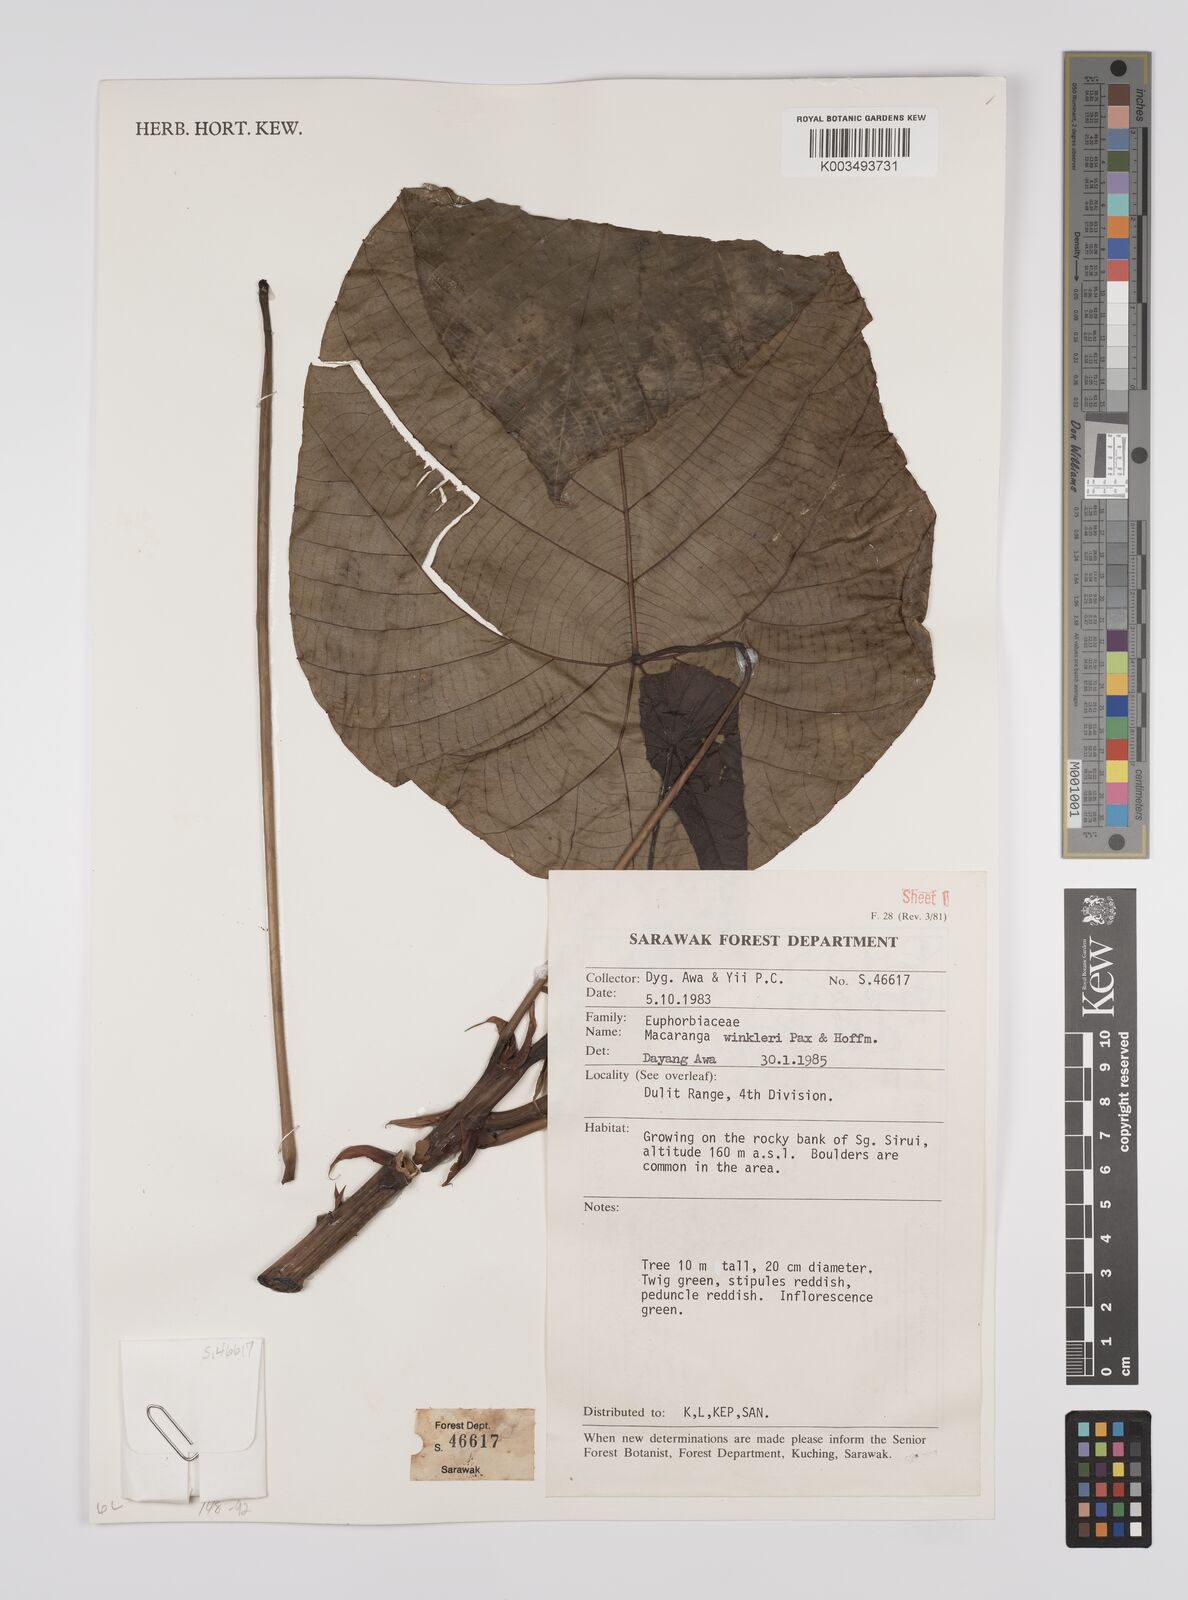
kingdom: Plantae
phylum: Tracheophyta
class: Magnoliopsida
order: Malpighiales
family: Euphorbiaceae
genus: Macaranga
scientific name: Macaranga winkleri
